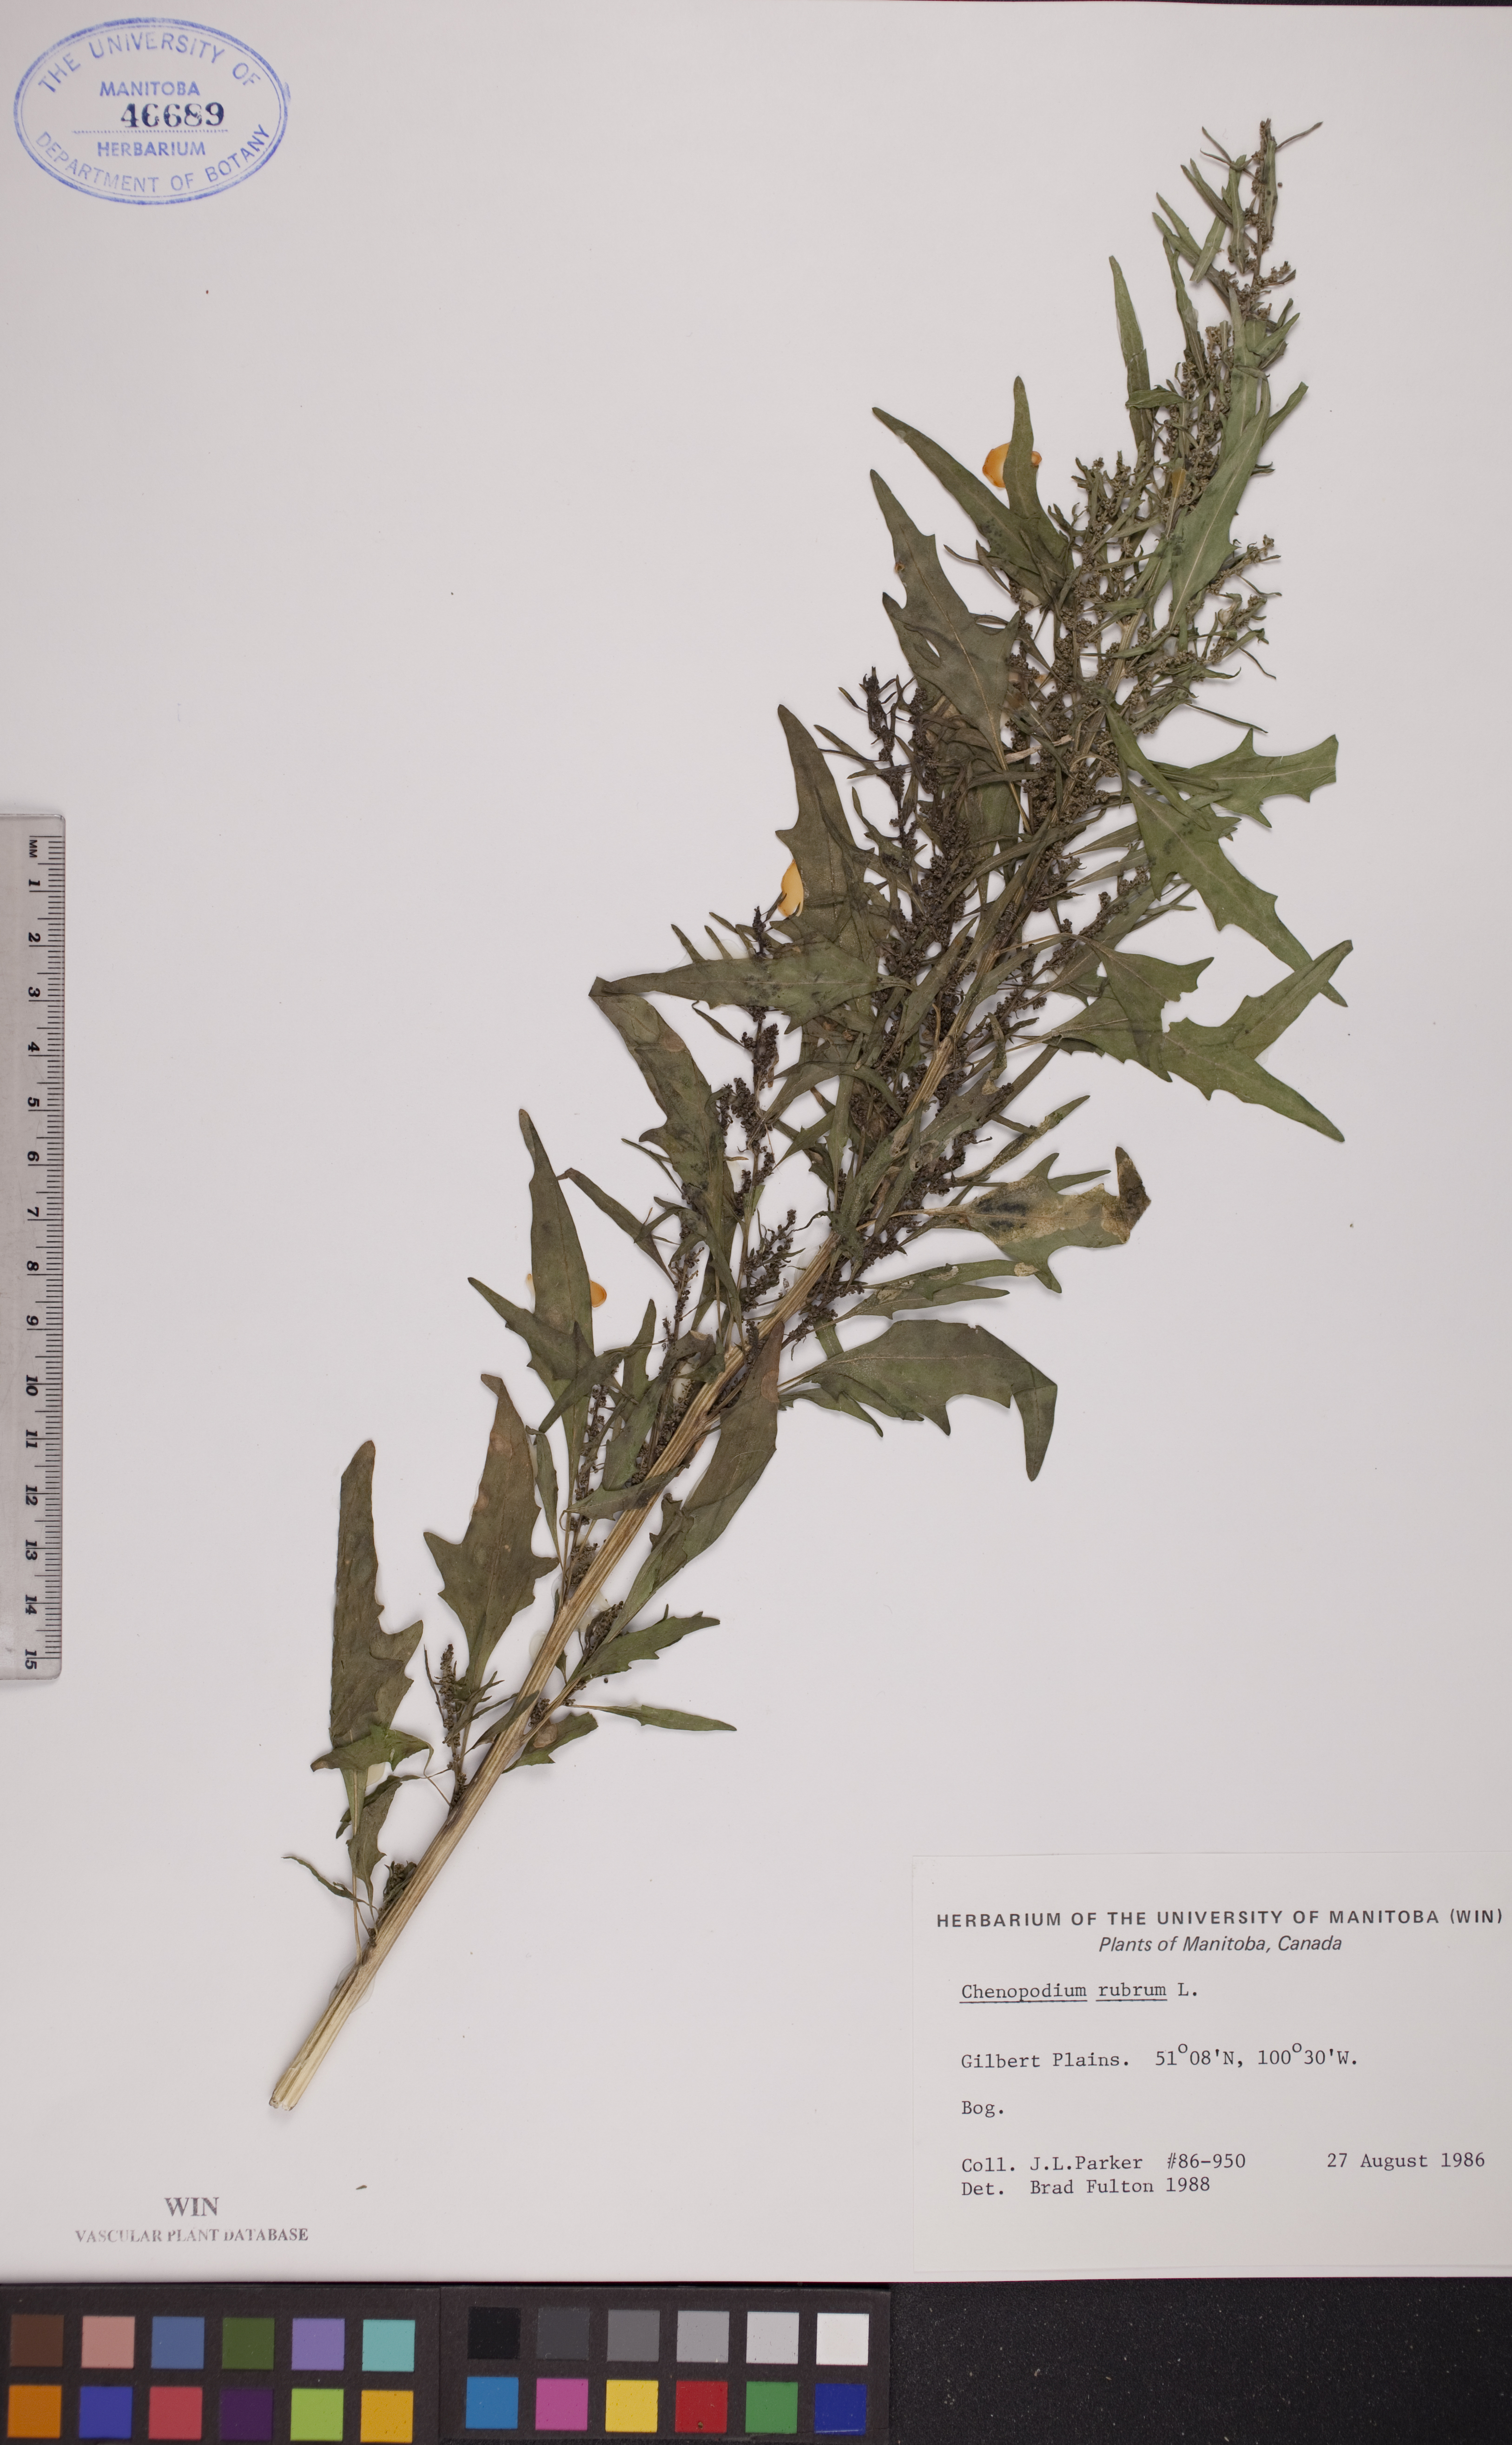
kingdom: Plantae
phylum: Tracheophyta
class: Magnoliopsida
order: Caryophyllales
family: Amaranthaceae
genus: Oxybasis
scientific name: Oxybasis rubra
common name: Red goosefoot
